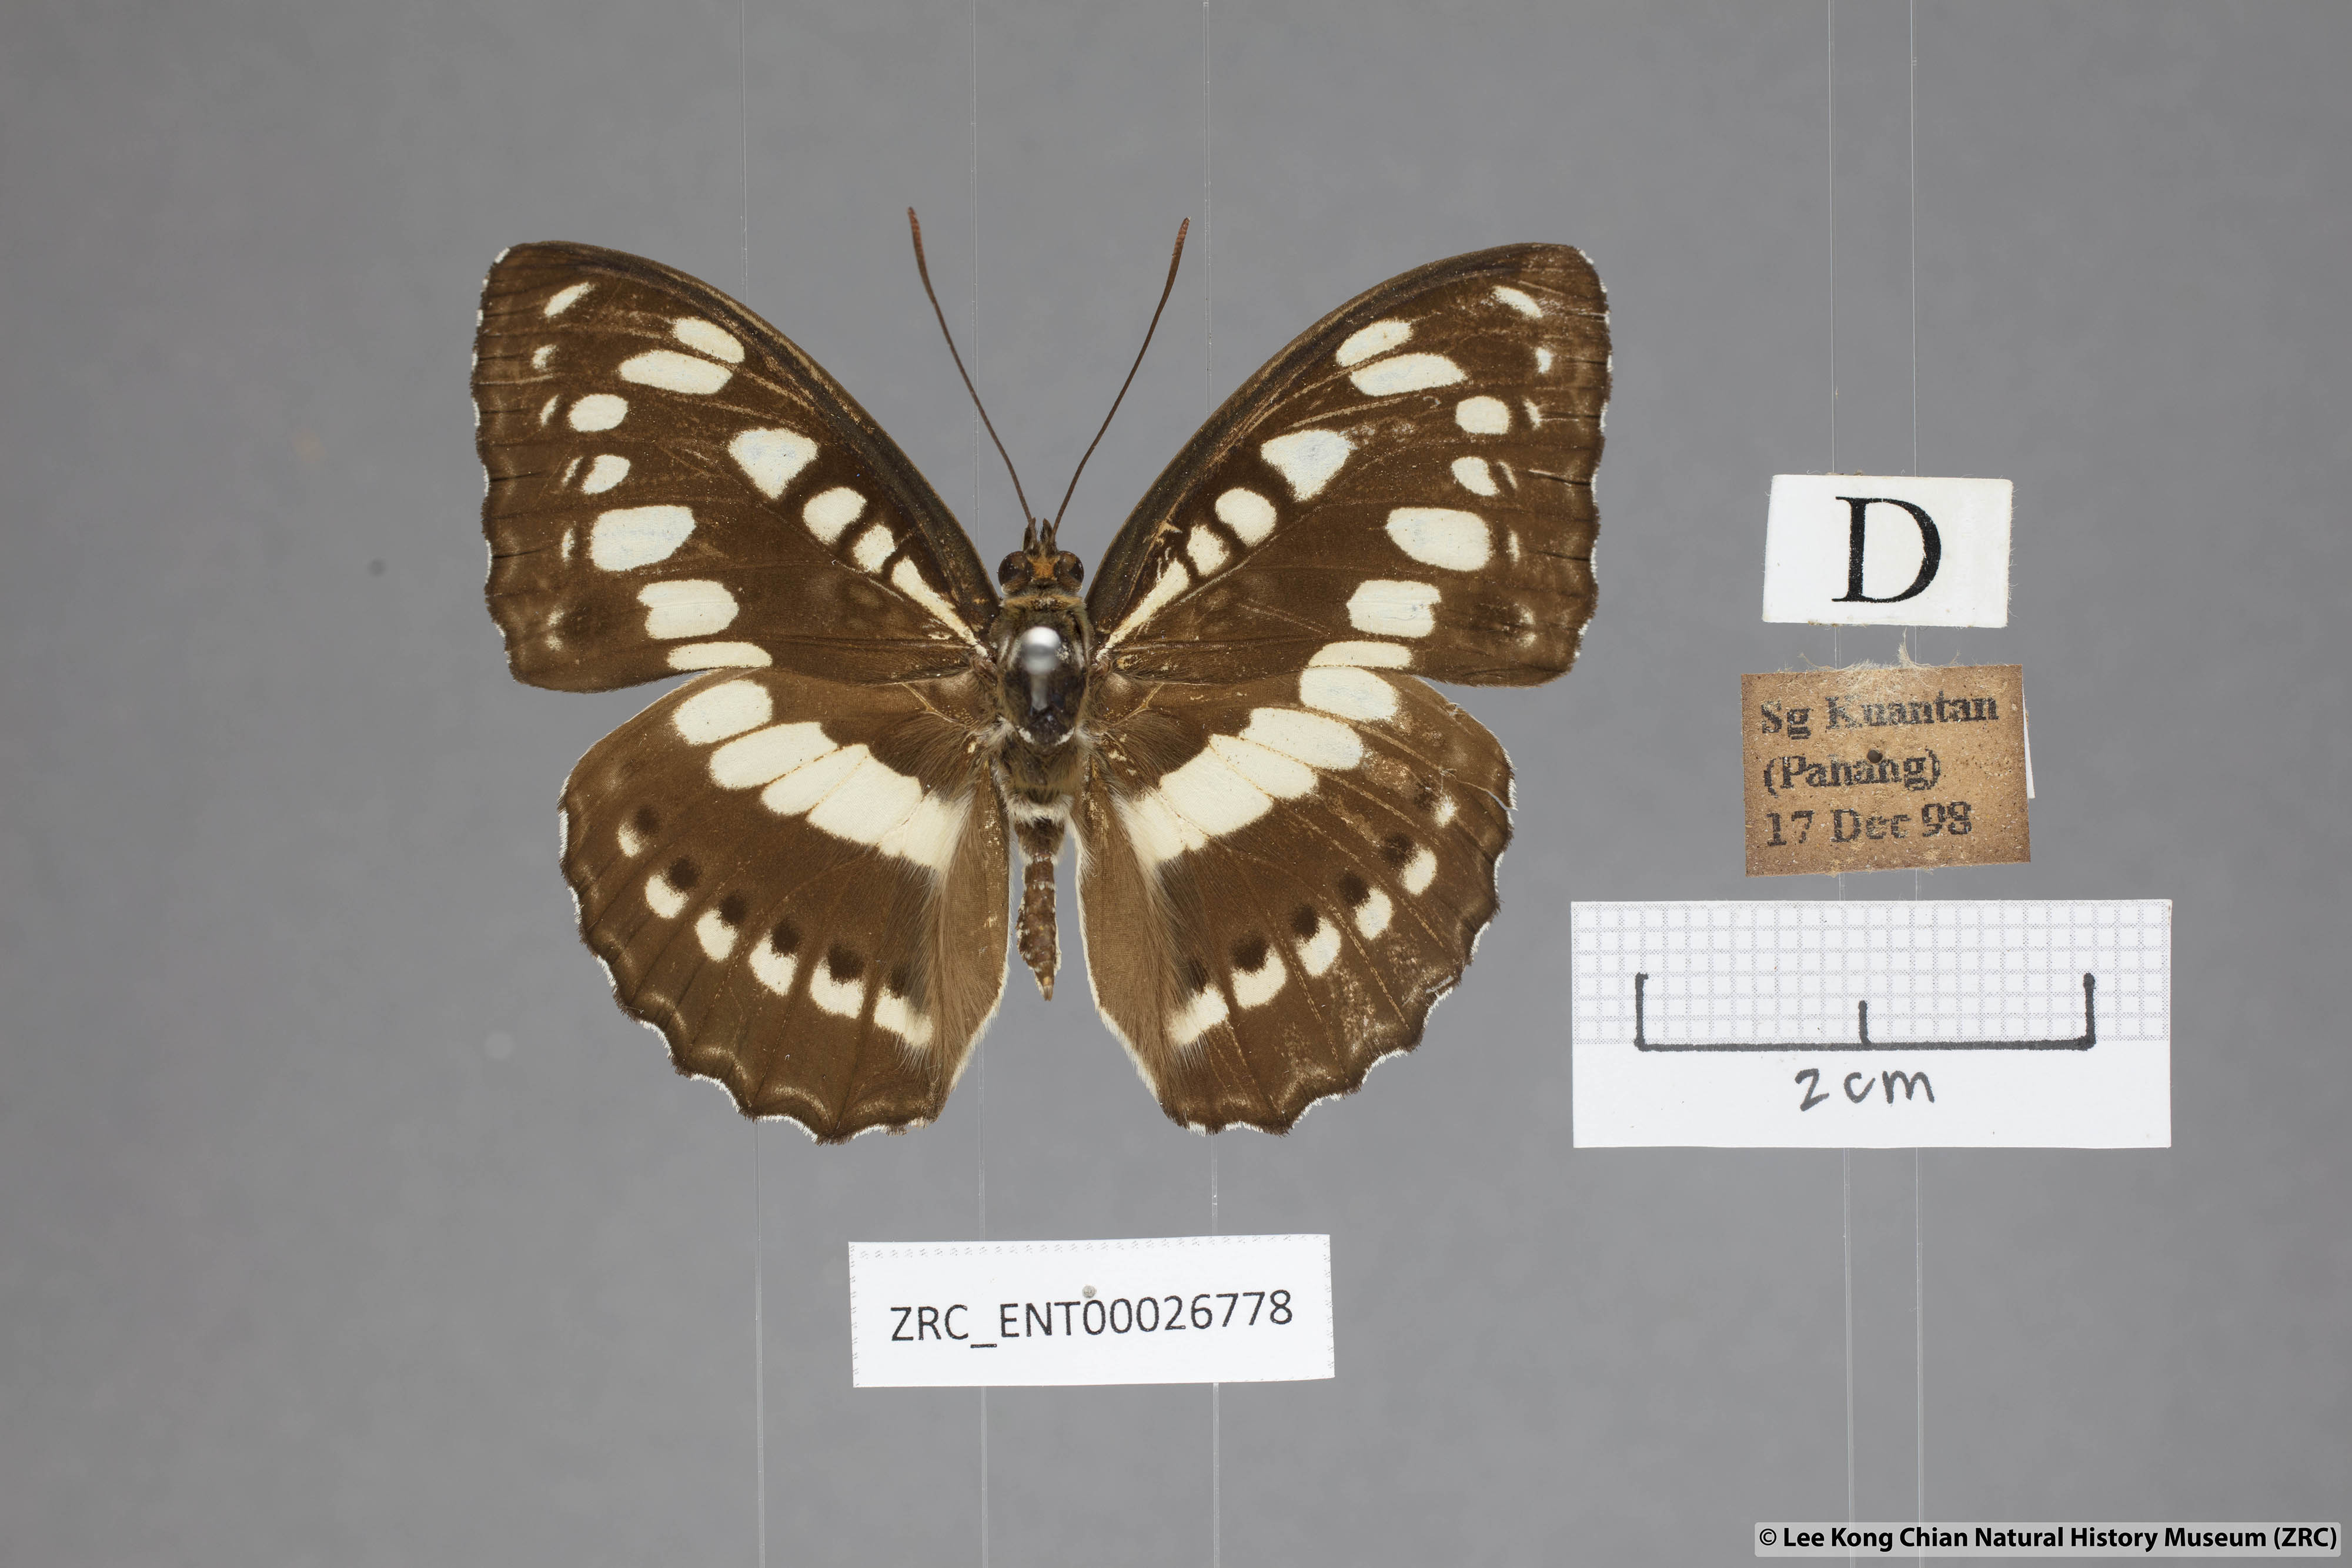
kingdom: Animalia
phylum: Arthropoda
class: Insecta
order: Lepidoptera
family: Nymphalidae
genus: Parathyma
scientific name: Parathyma perius
